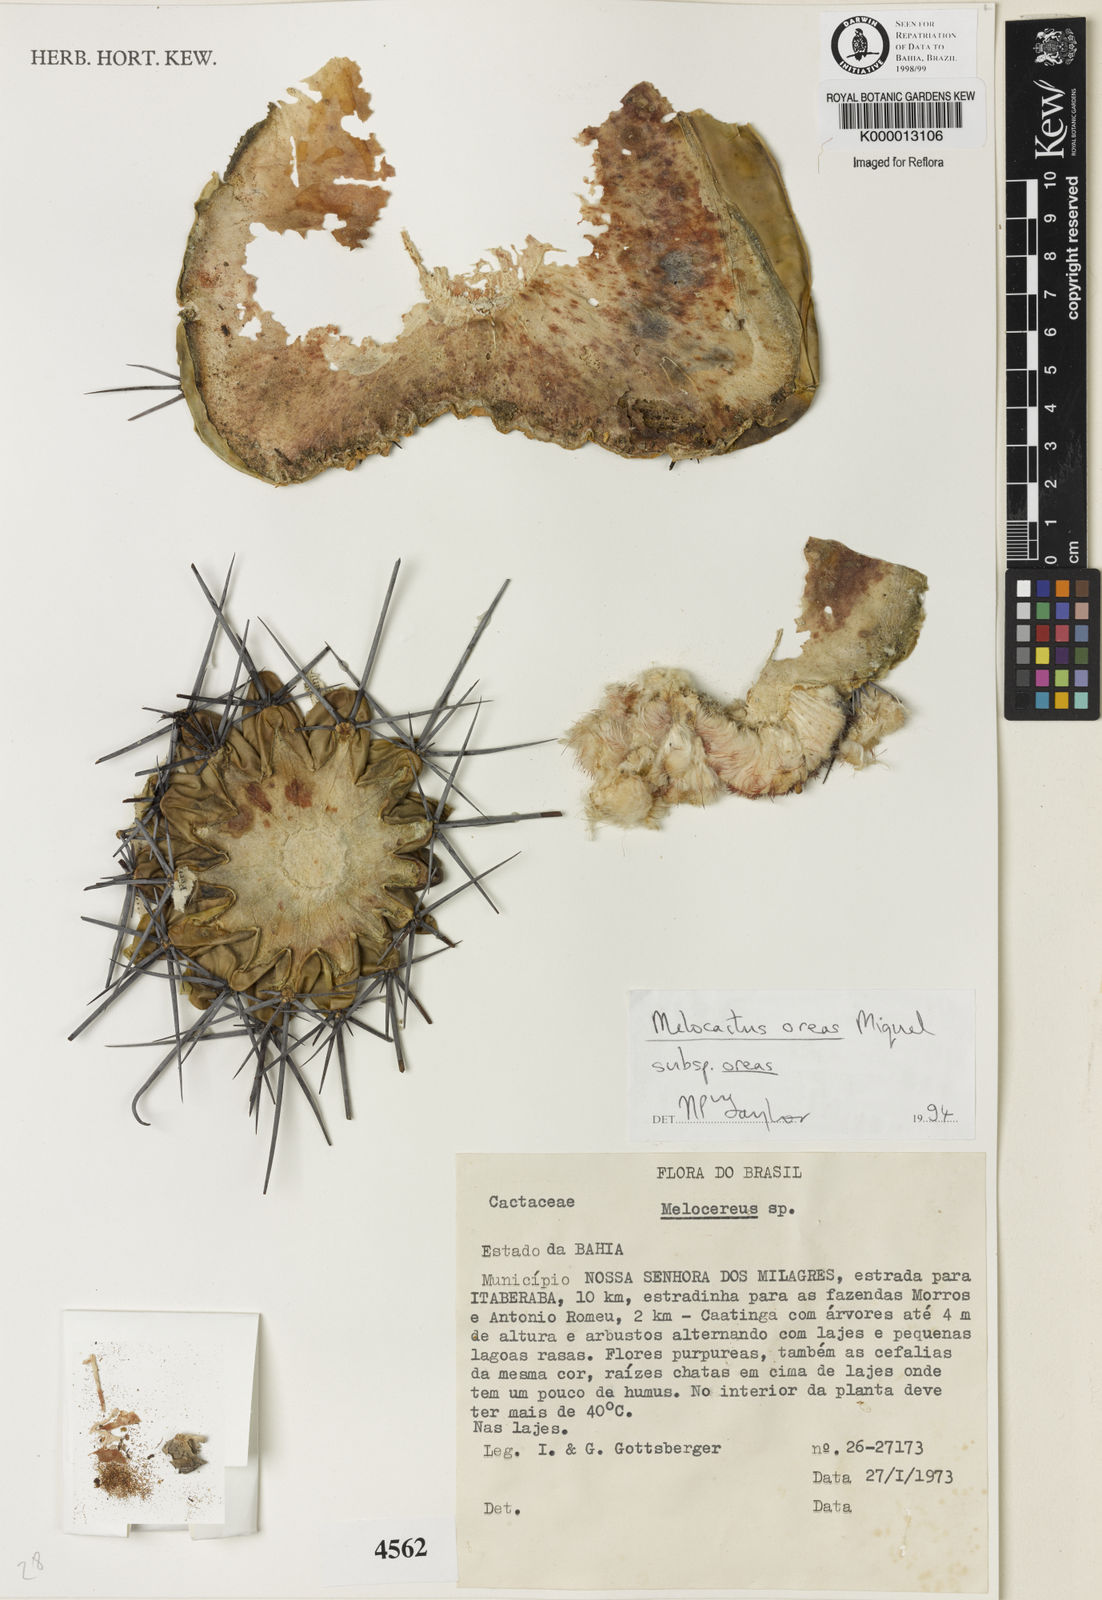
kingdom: Plantae
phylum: Tracheophyta
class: Magnoliopsida
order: Caryophyllales
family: Cactaceae
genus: Melocactus
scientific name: Melocactus oreas
